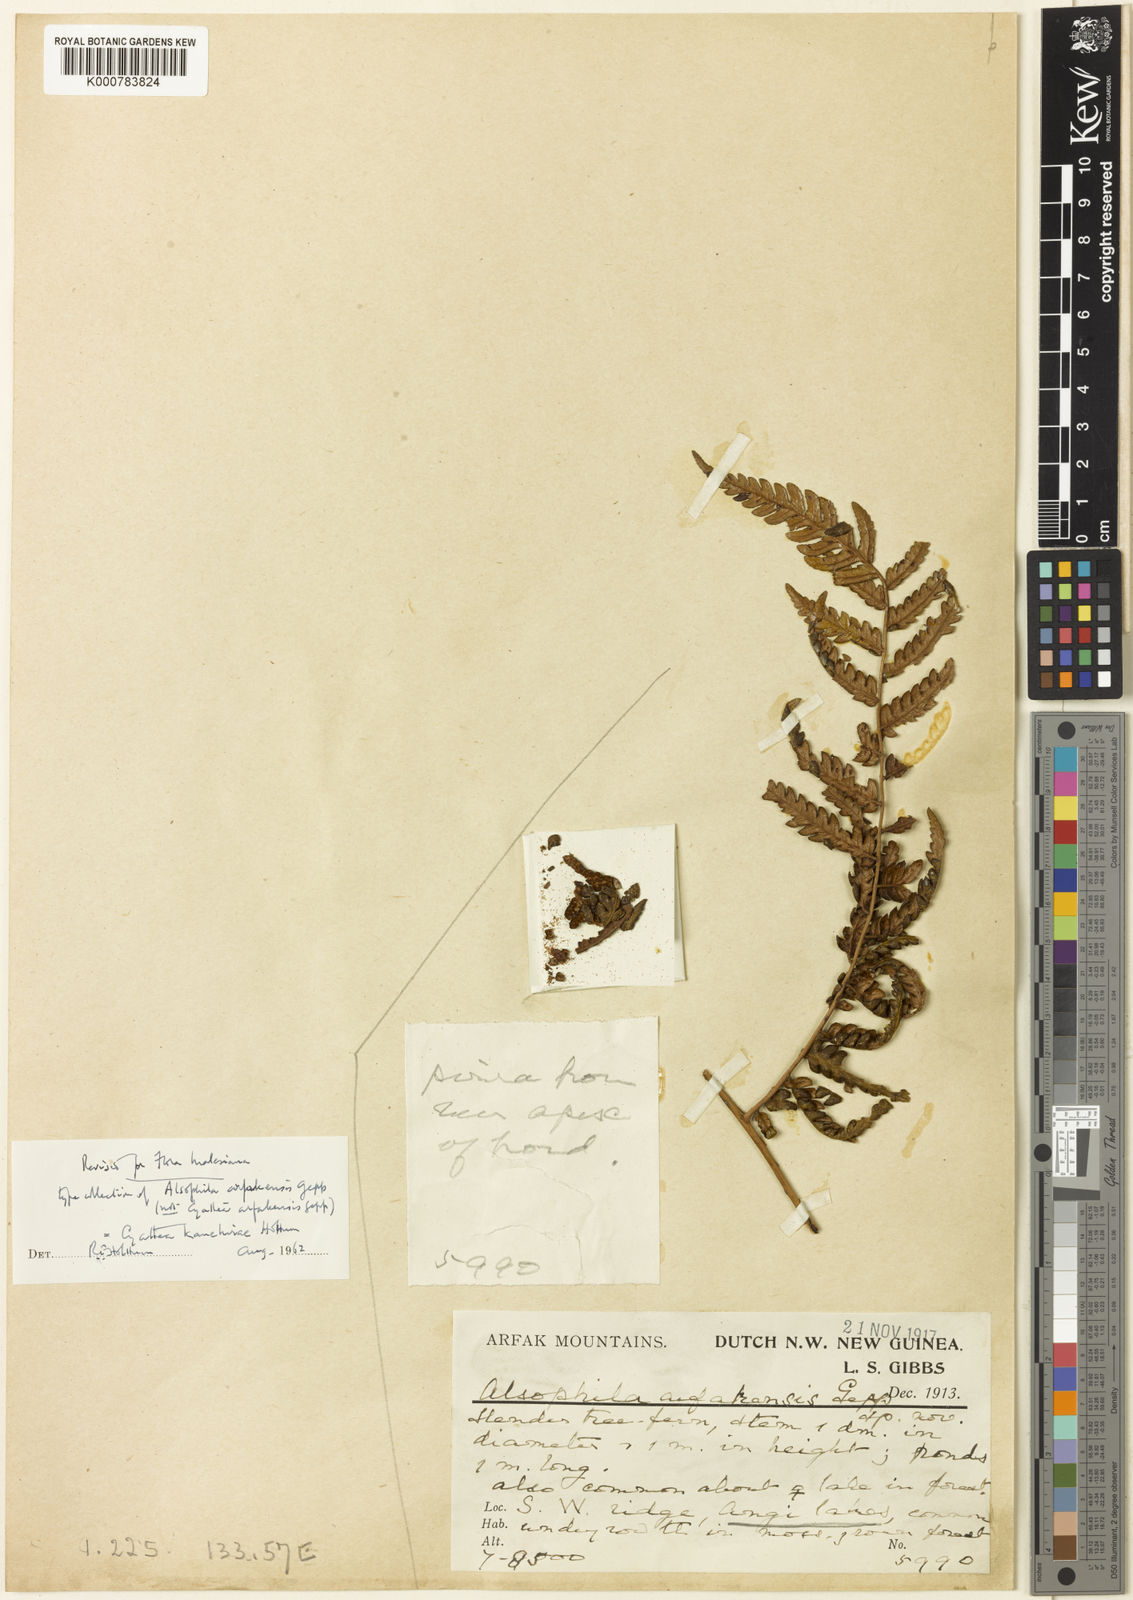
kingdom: Plantae
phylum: Tracheophyta
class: Polypodiopsida
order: Cyatheales
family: Cyatheaceae
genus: Alsophila
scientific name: Alsophila arfakensis
